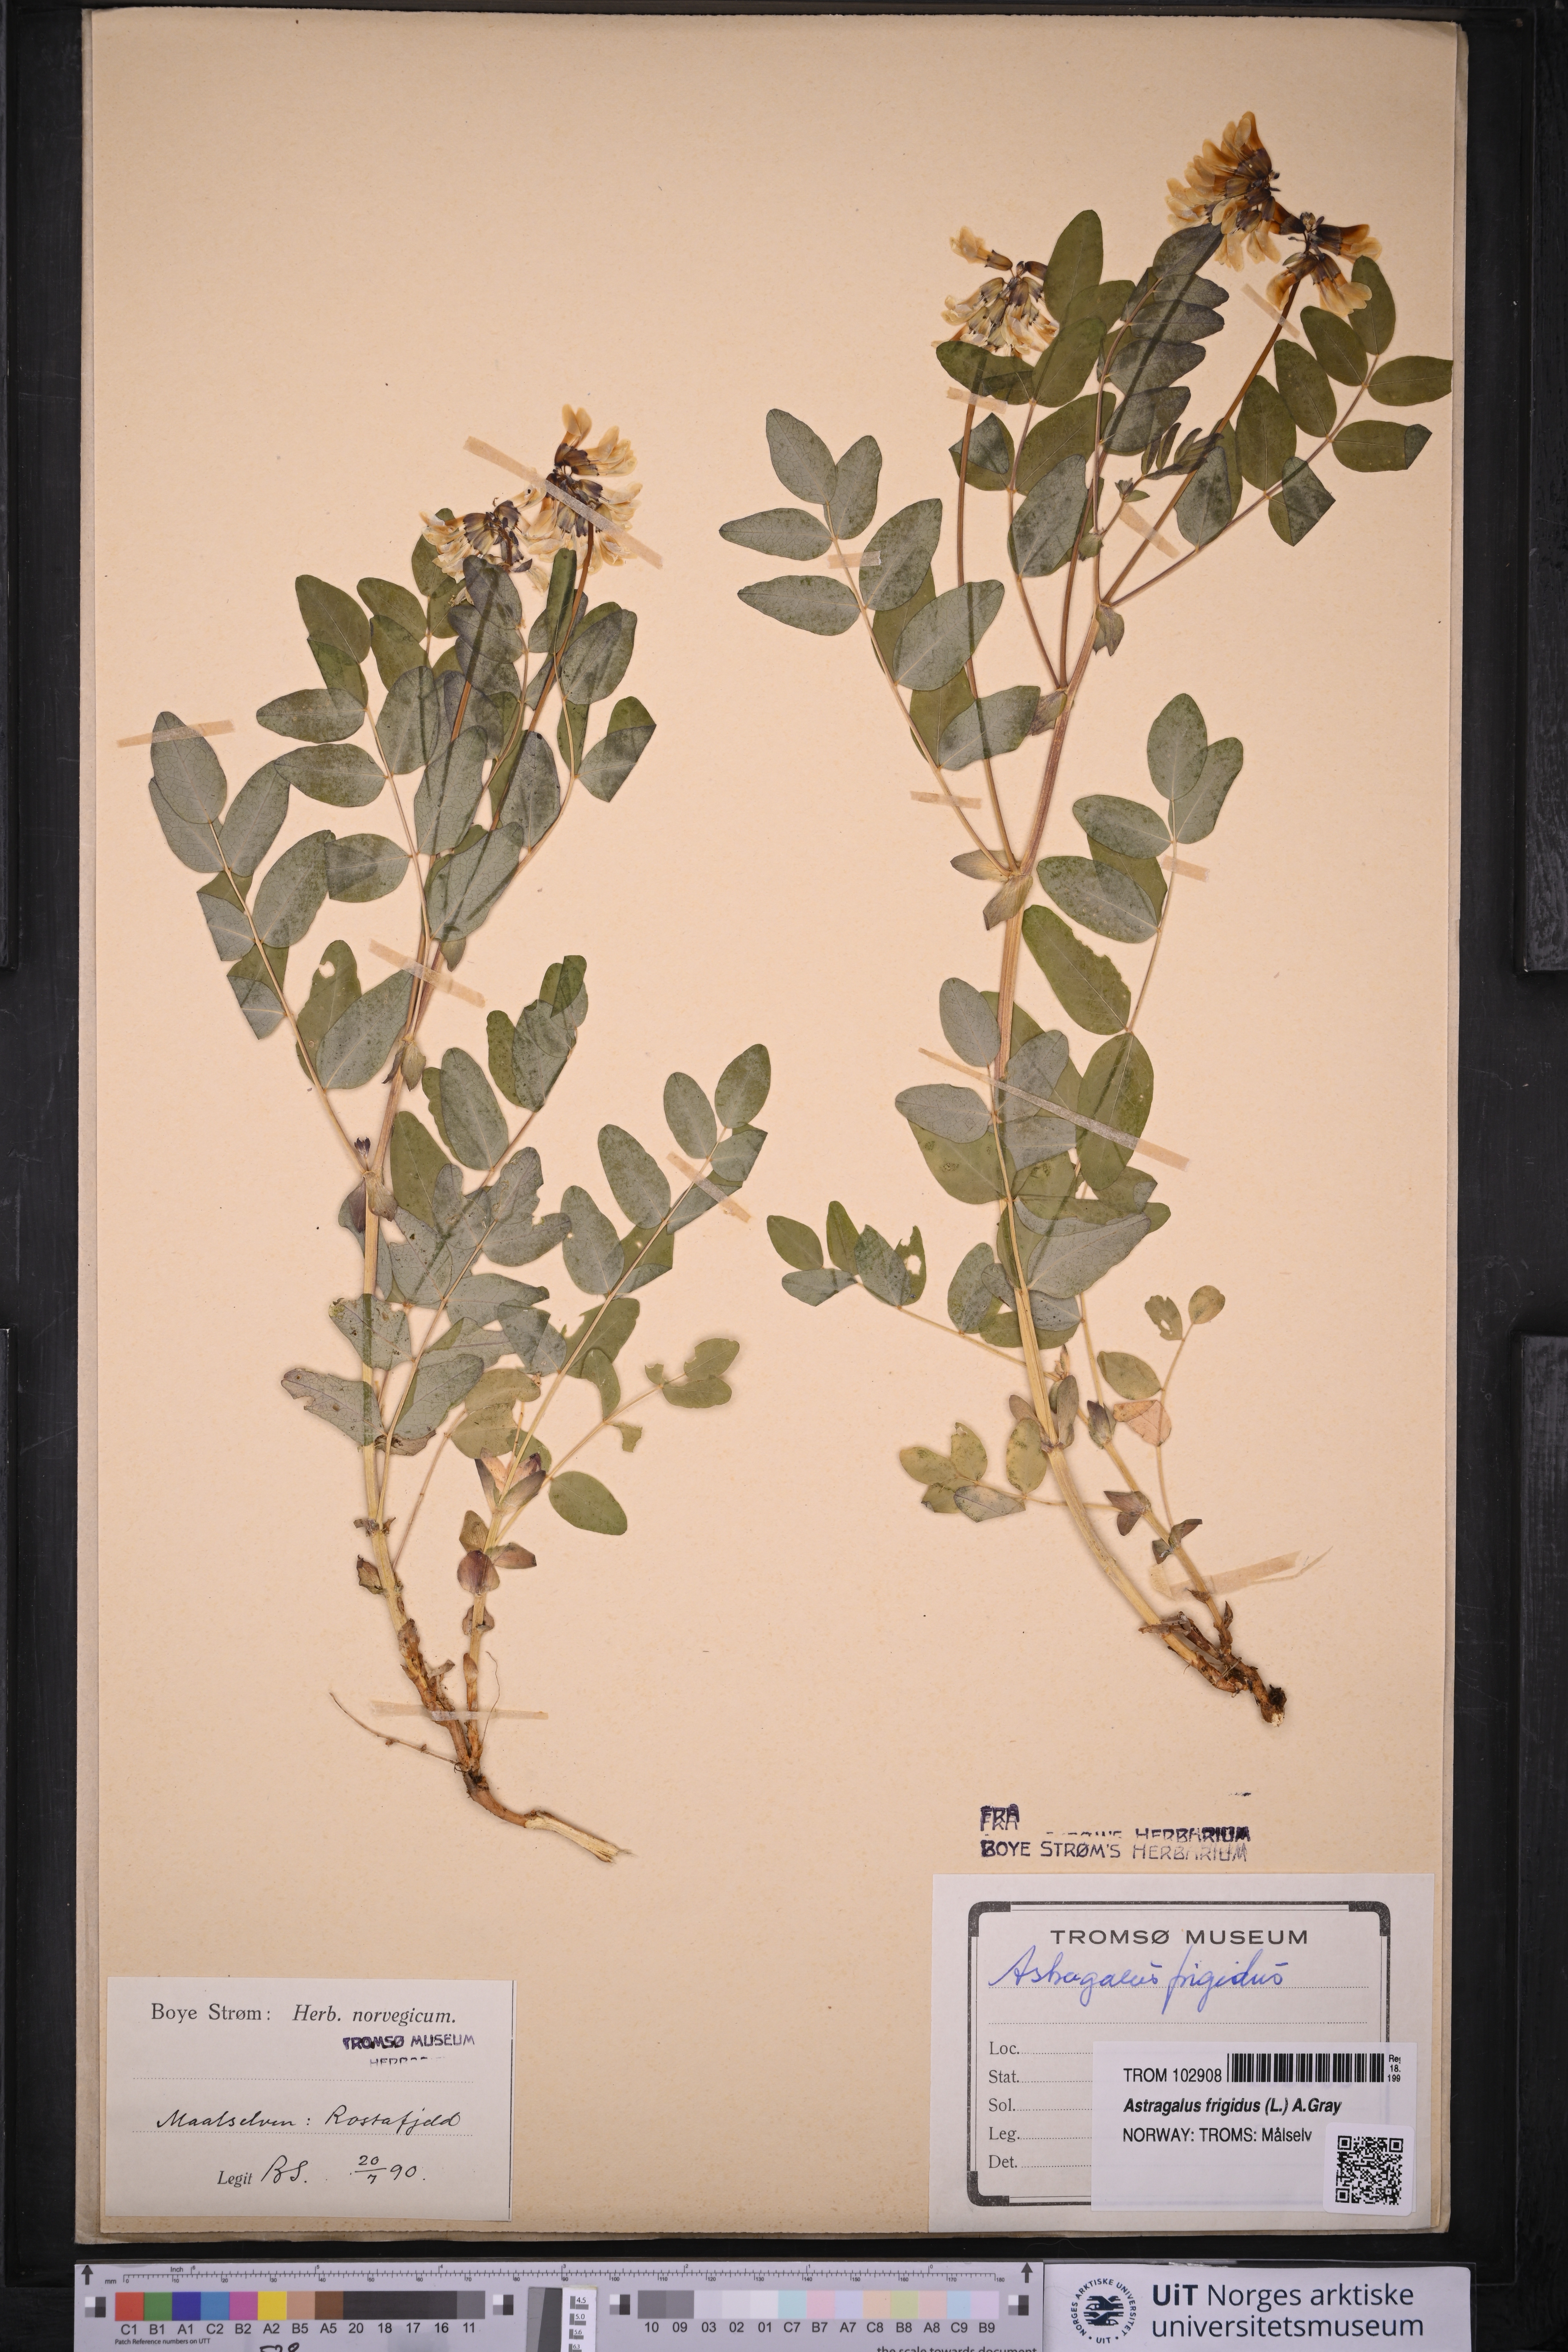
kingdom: Plantae
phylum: Tracheophyta
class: Magnoliopsida
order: Fabales
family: Fabaceae
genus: Astragalus
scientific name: Astragalus frigidus
